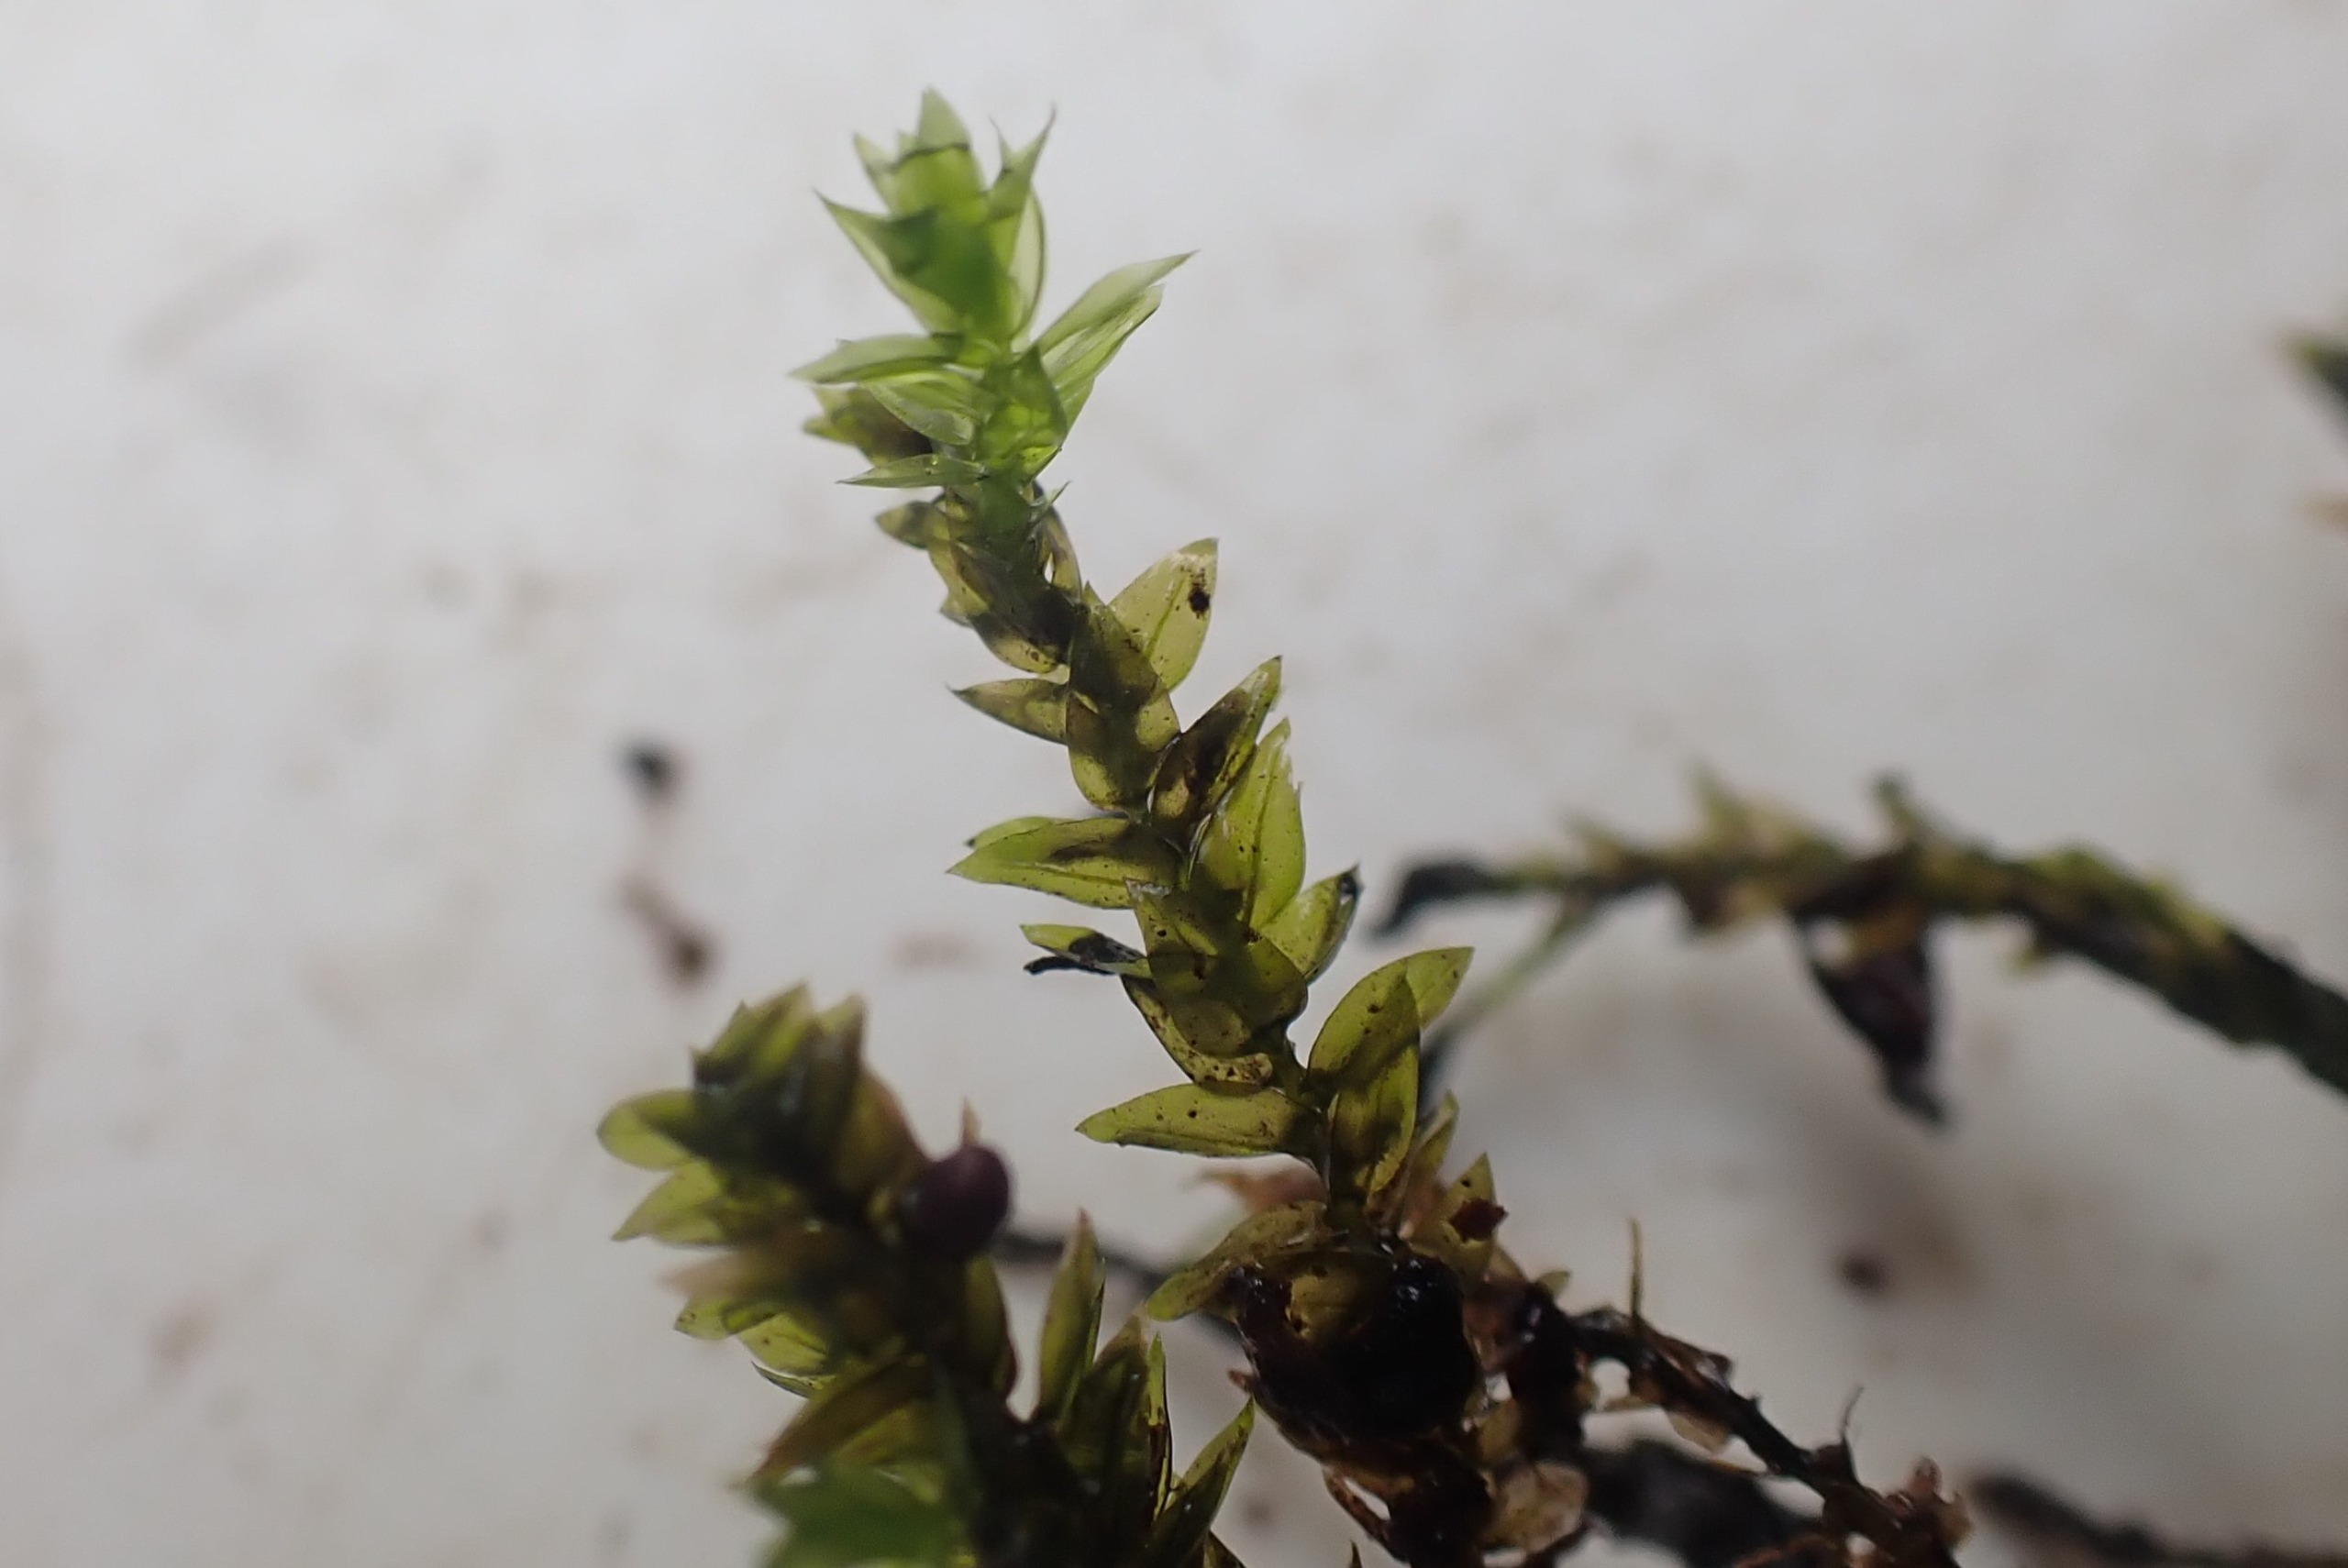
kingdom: Plantae
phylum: Bryophyta
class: Bryopsida
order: Hypnales
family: Brachytheciaceae
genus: Rhynchostegium
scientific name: Rhynchostegium riparioides
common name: Robust strømmos
